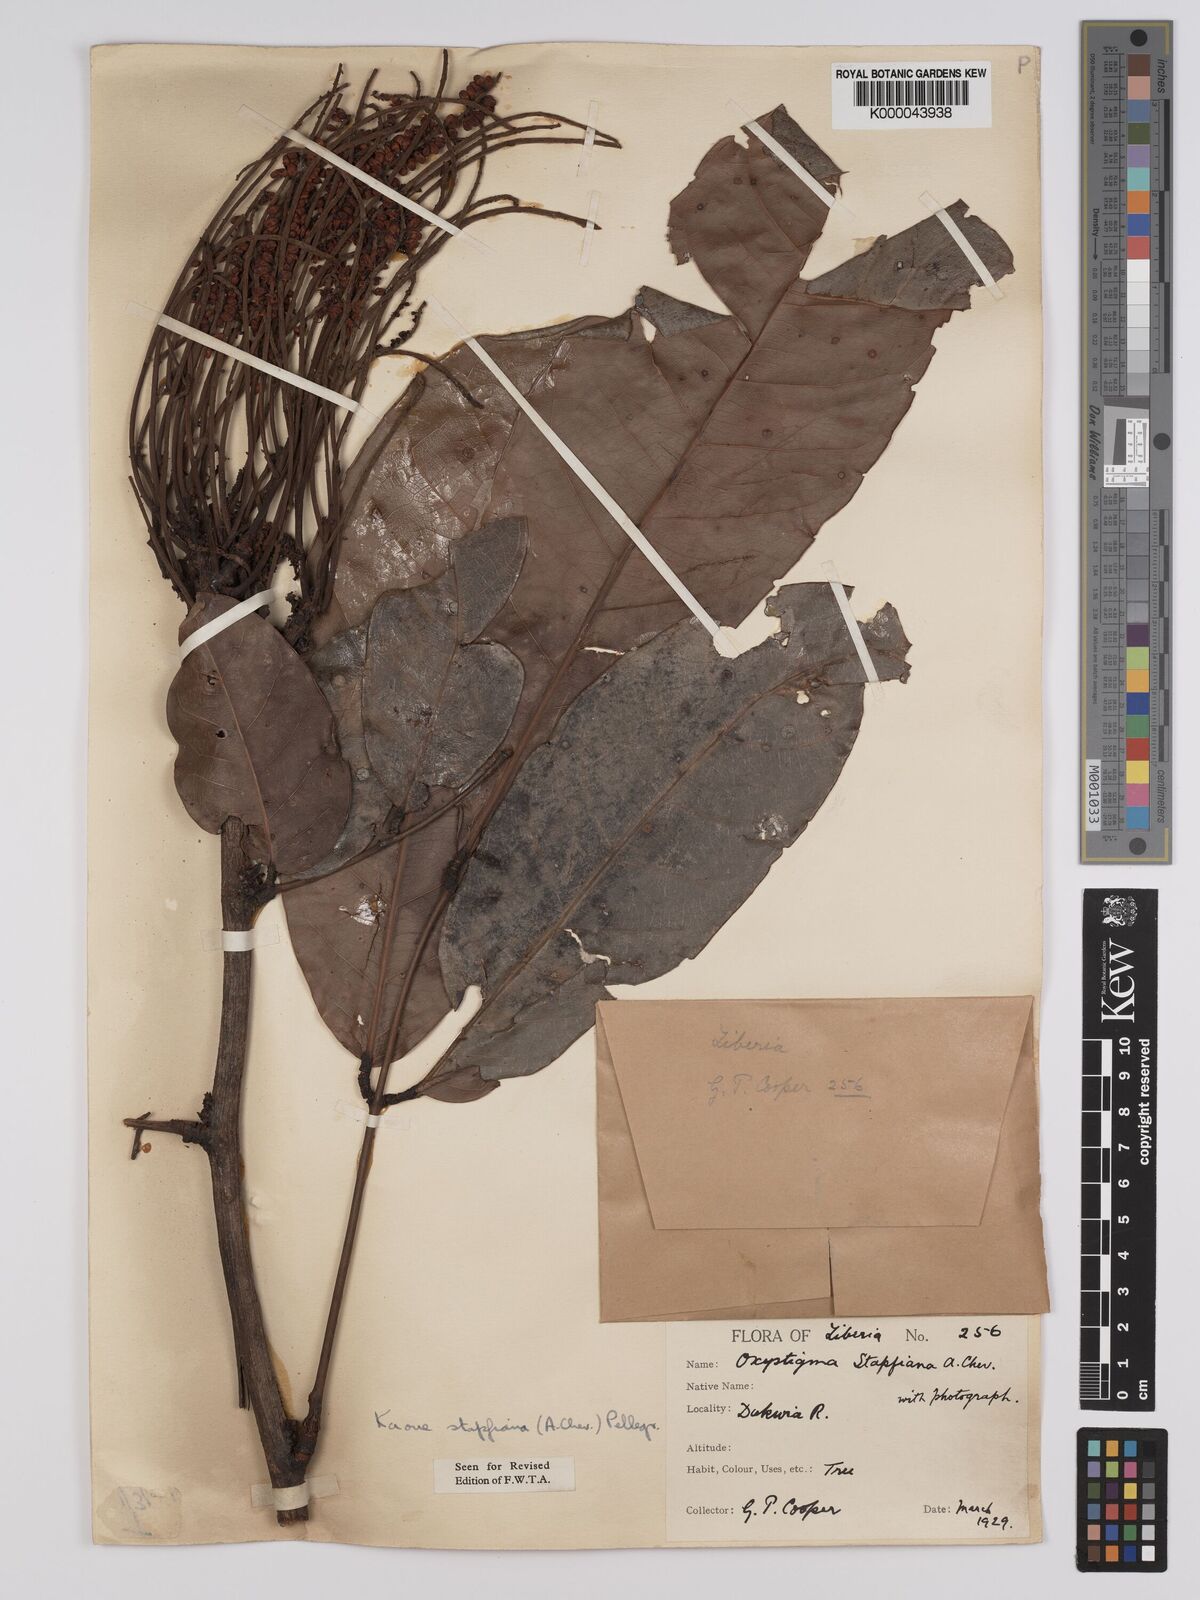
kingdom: Plantae
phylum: Tracheophyta
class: Magnoliopsida
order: Fabales
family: Fabaceae
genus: Stachyothyrsus
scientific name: Stachyothyrsus
